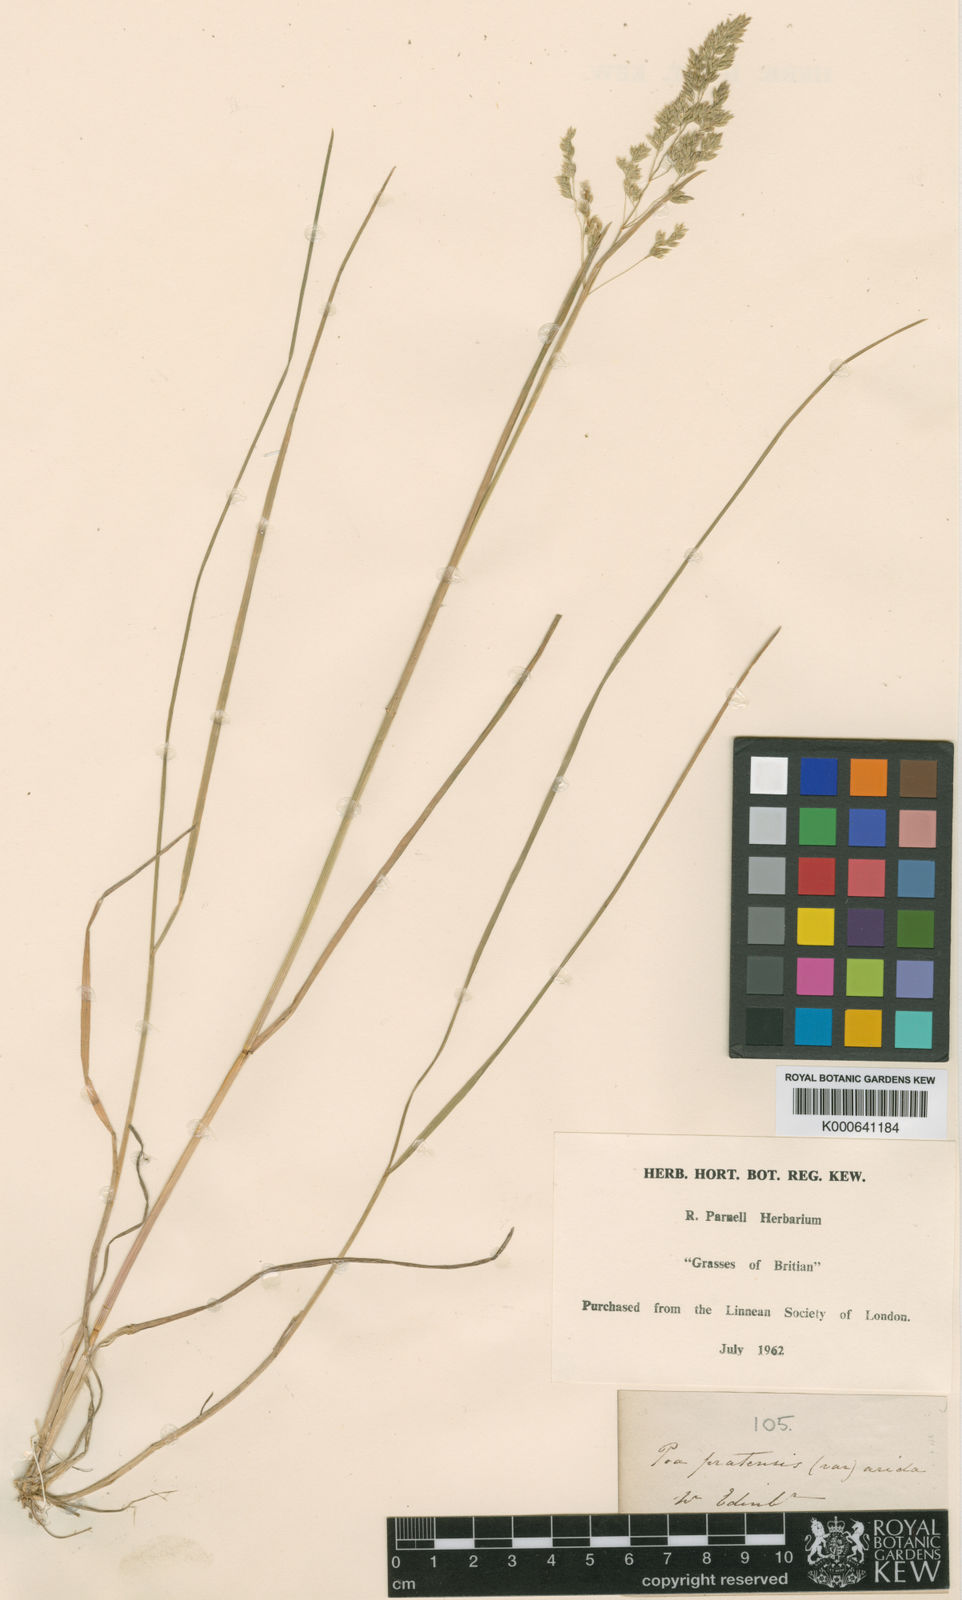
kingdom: Plantae
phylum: Tracheophyta
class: Liliopsida
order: Poales
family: Poaceae
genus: Poa
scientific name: Poa pratensis
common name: Kentucky bluegrass
